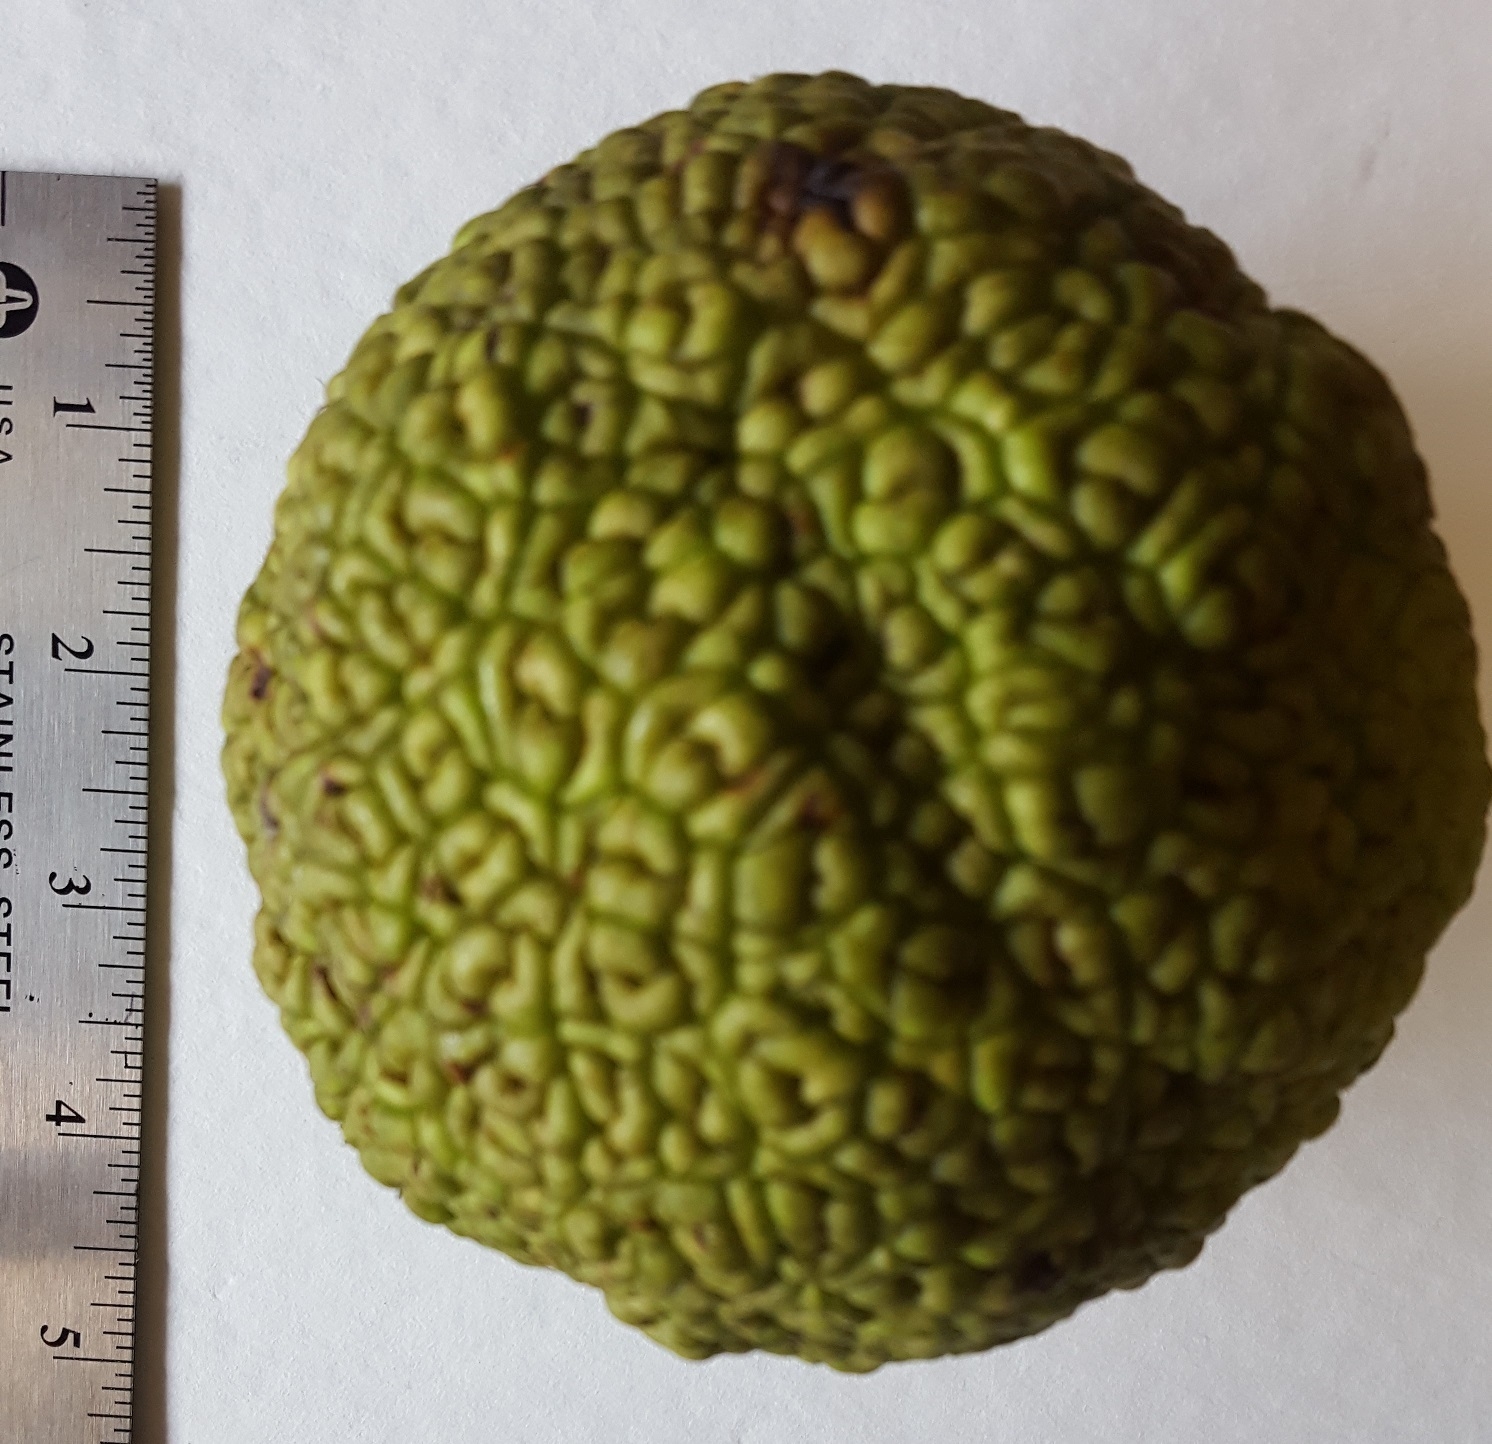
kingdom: Plantae
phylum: Tracheophyta
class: Magnoliopsida
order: Rosales
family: Moraceae
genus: Maclura
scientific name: Maclura pomifera
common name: Osage-orange
